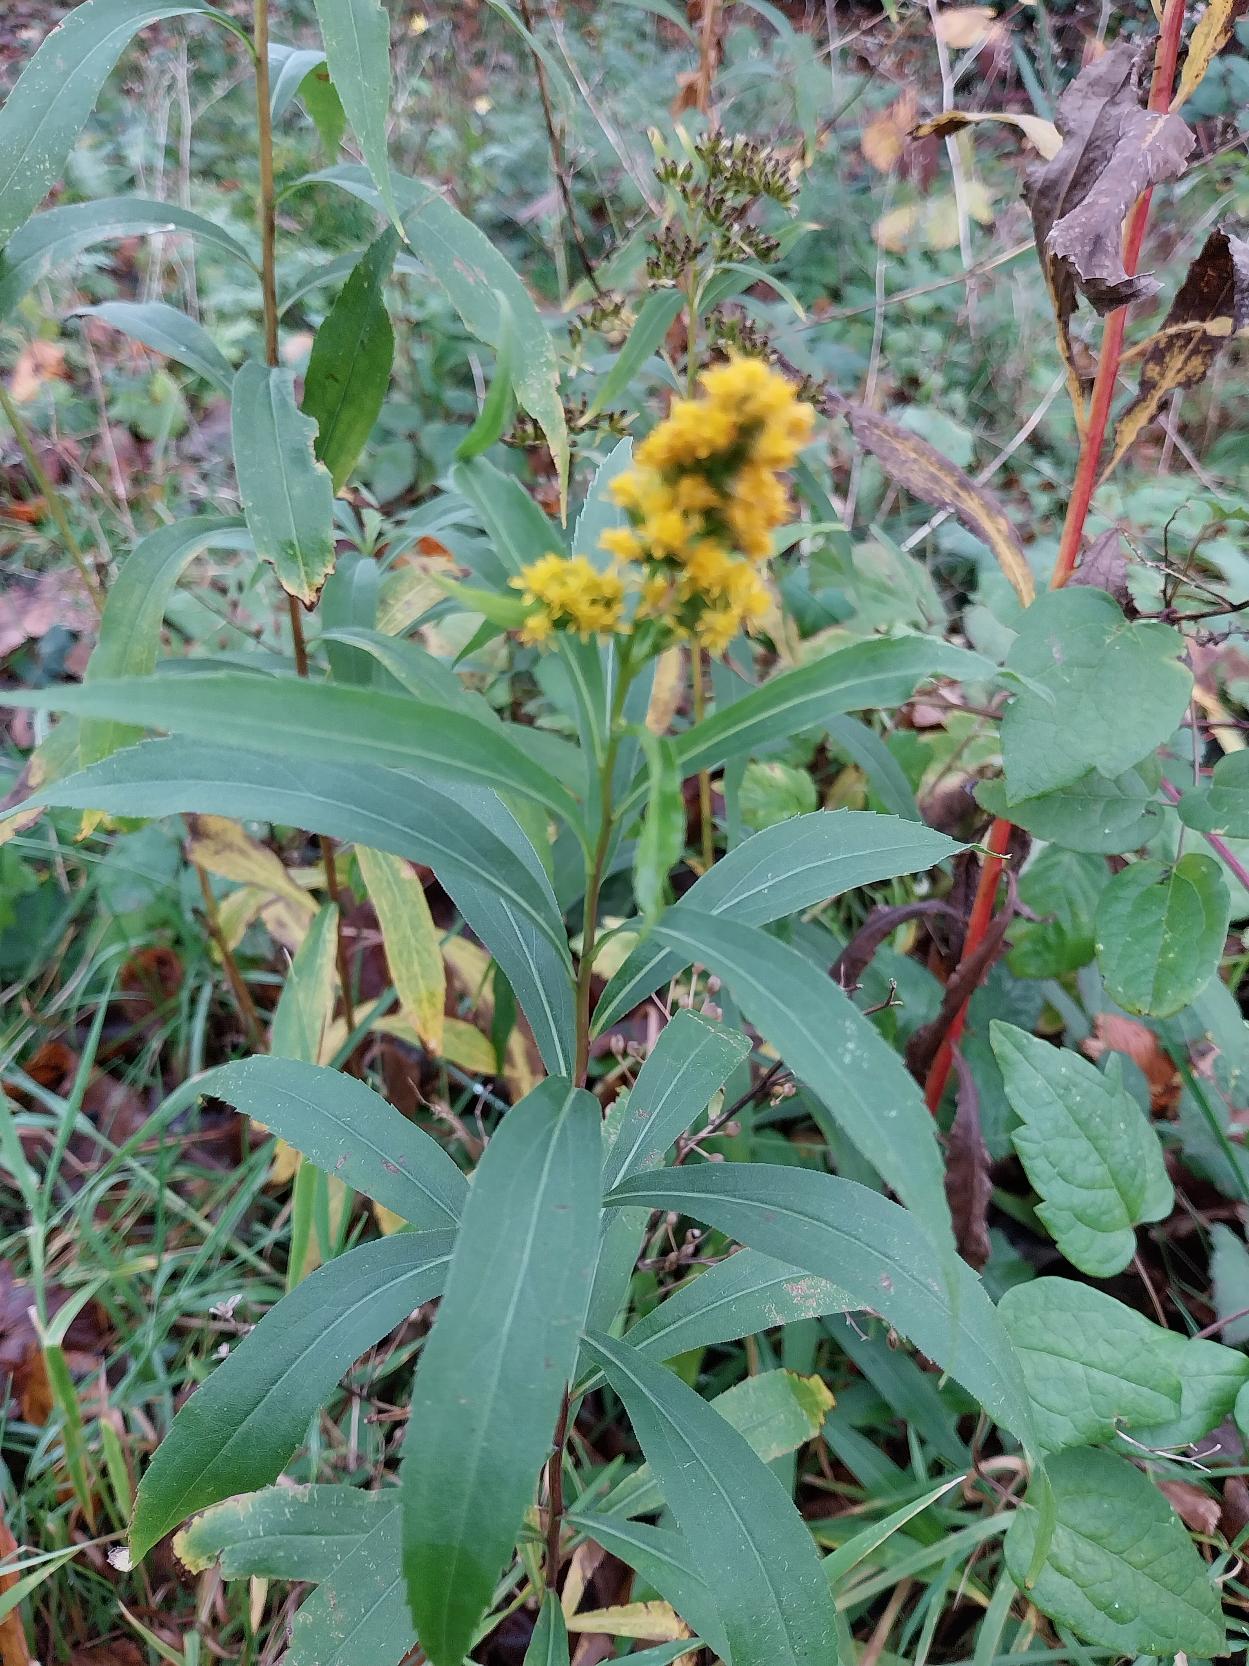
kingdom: Plantae
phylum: Tracheophyta
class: Magnoliopsida
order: Asterales
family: Asteraceae
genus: Solidago
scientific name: Solidago gigantea
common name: Sildig gyldenris
